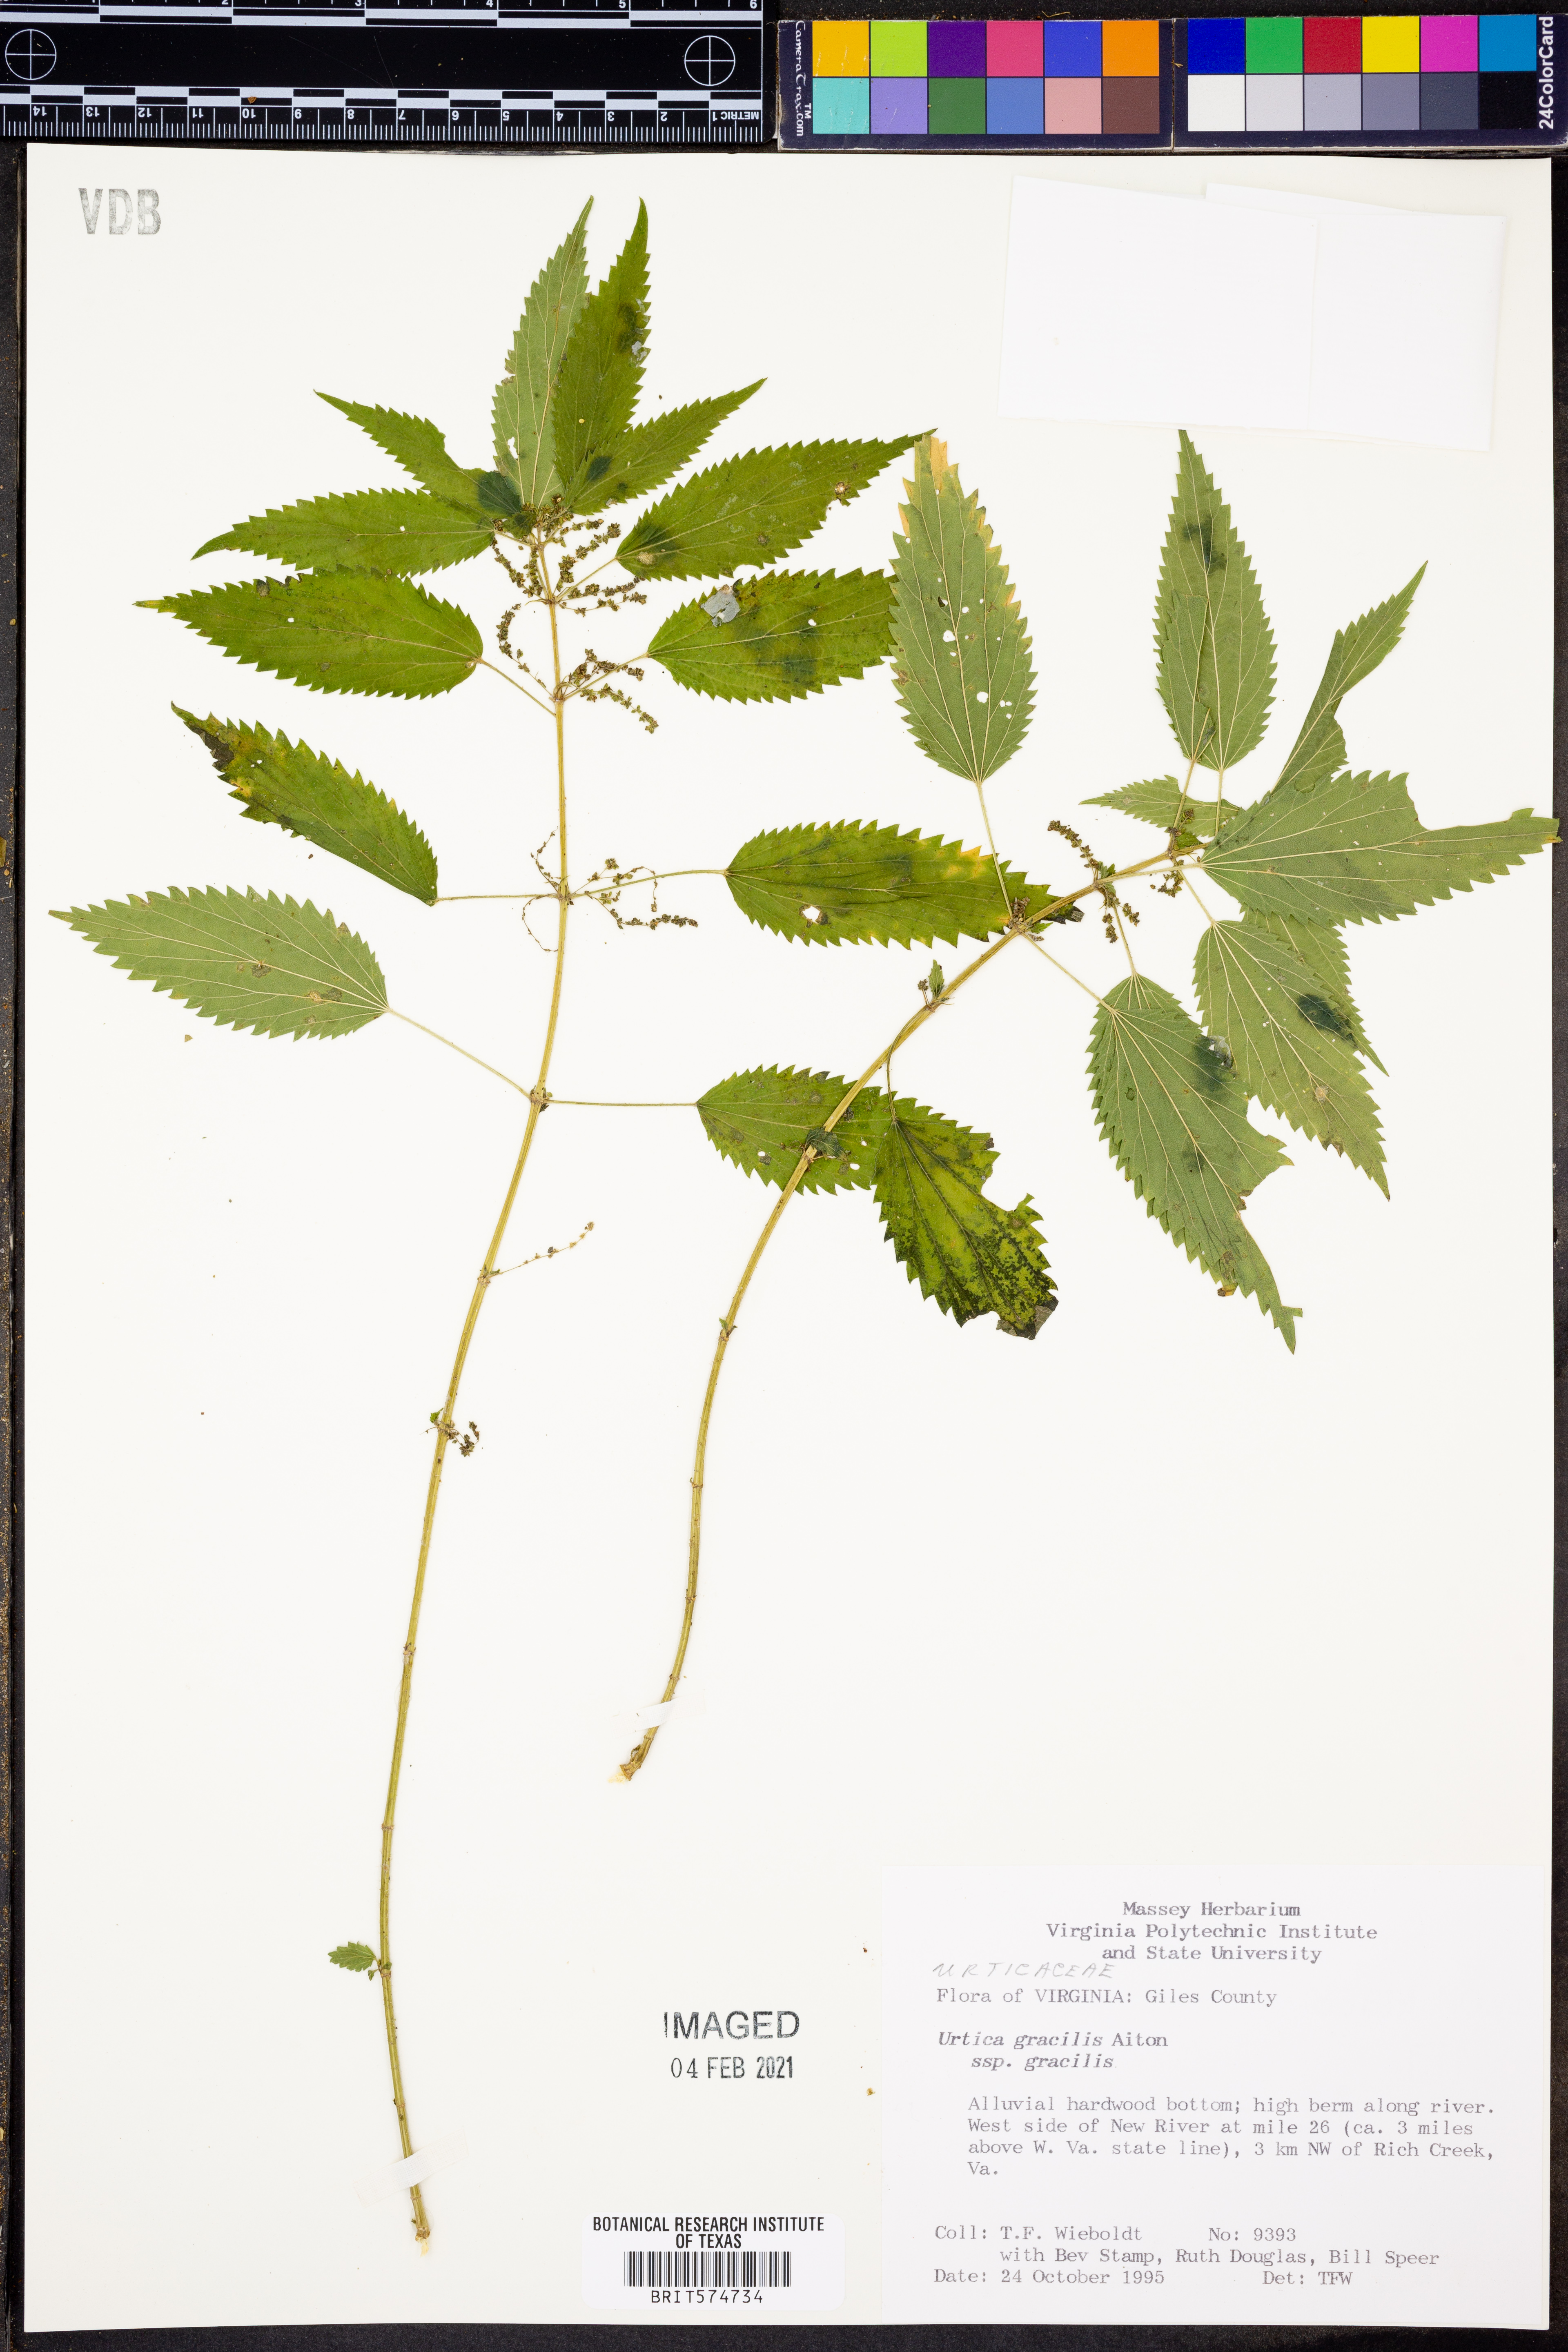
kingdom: Plantae
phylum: Tracheophyta
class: Magnoliopsida
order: Rosales
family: Urticaceae
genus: Urtica
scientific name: Urtica gracilis
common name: Slender stinging nettle
